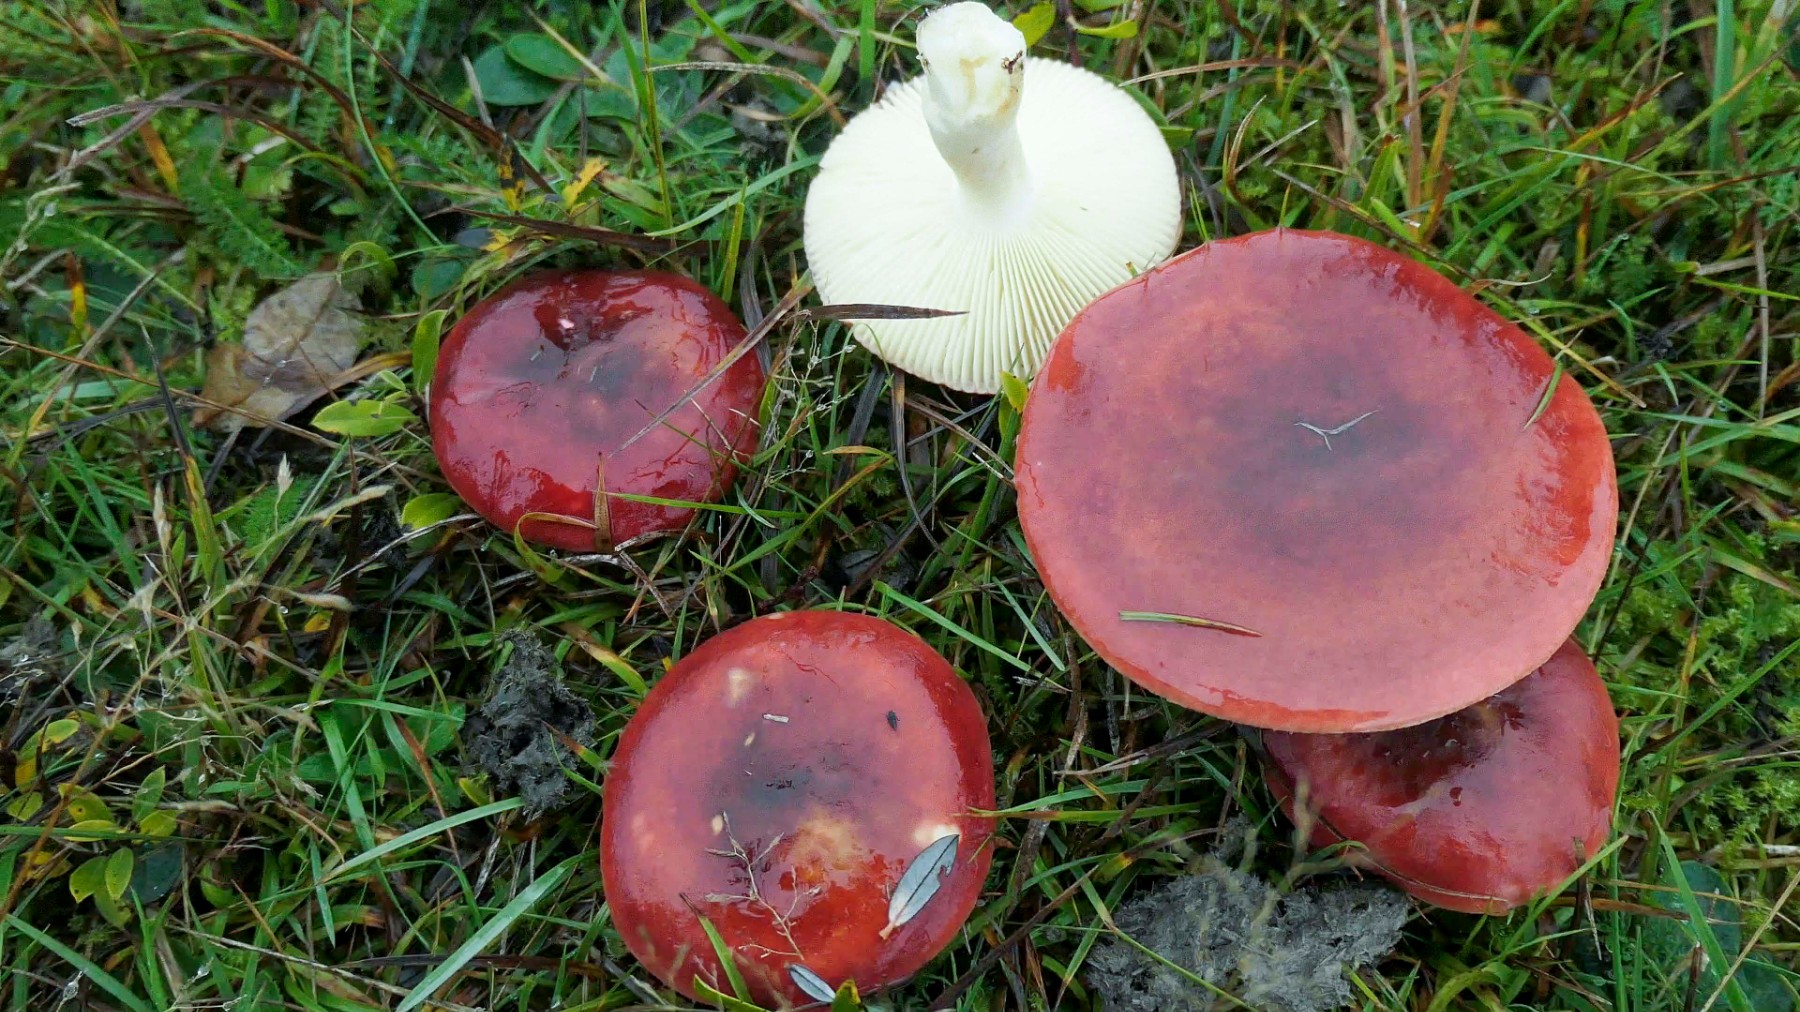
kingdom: Fungi
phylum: Basidiomycota
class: Agaricomycetes
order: Russulales
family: Russulaceae
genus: Russula
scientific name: Russula subrubens
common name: pile-skørhat
